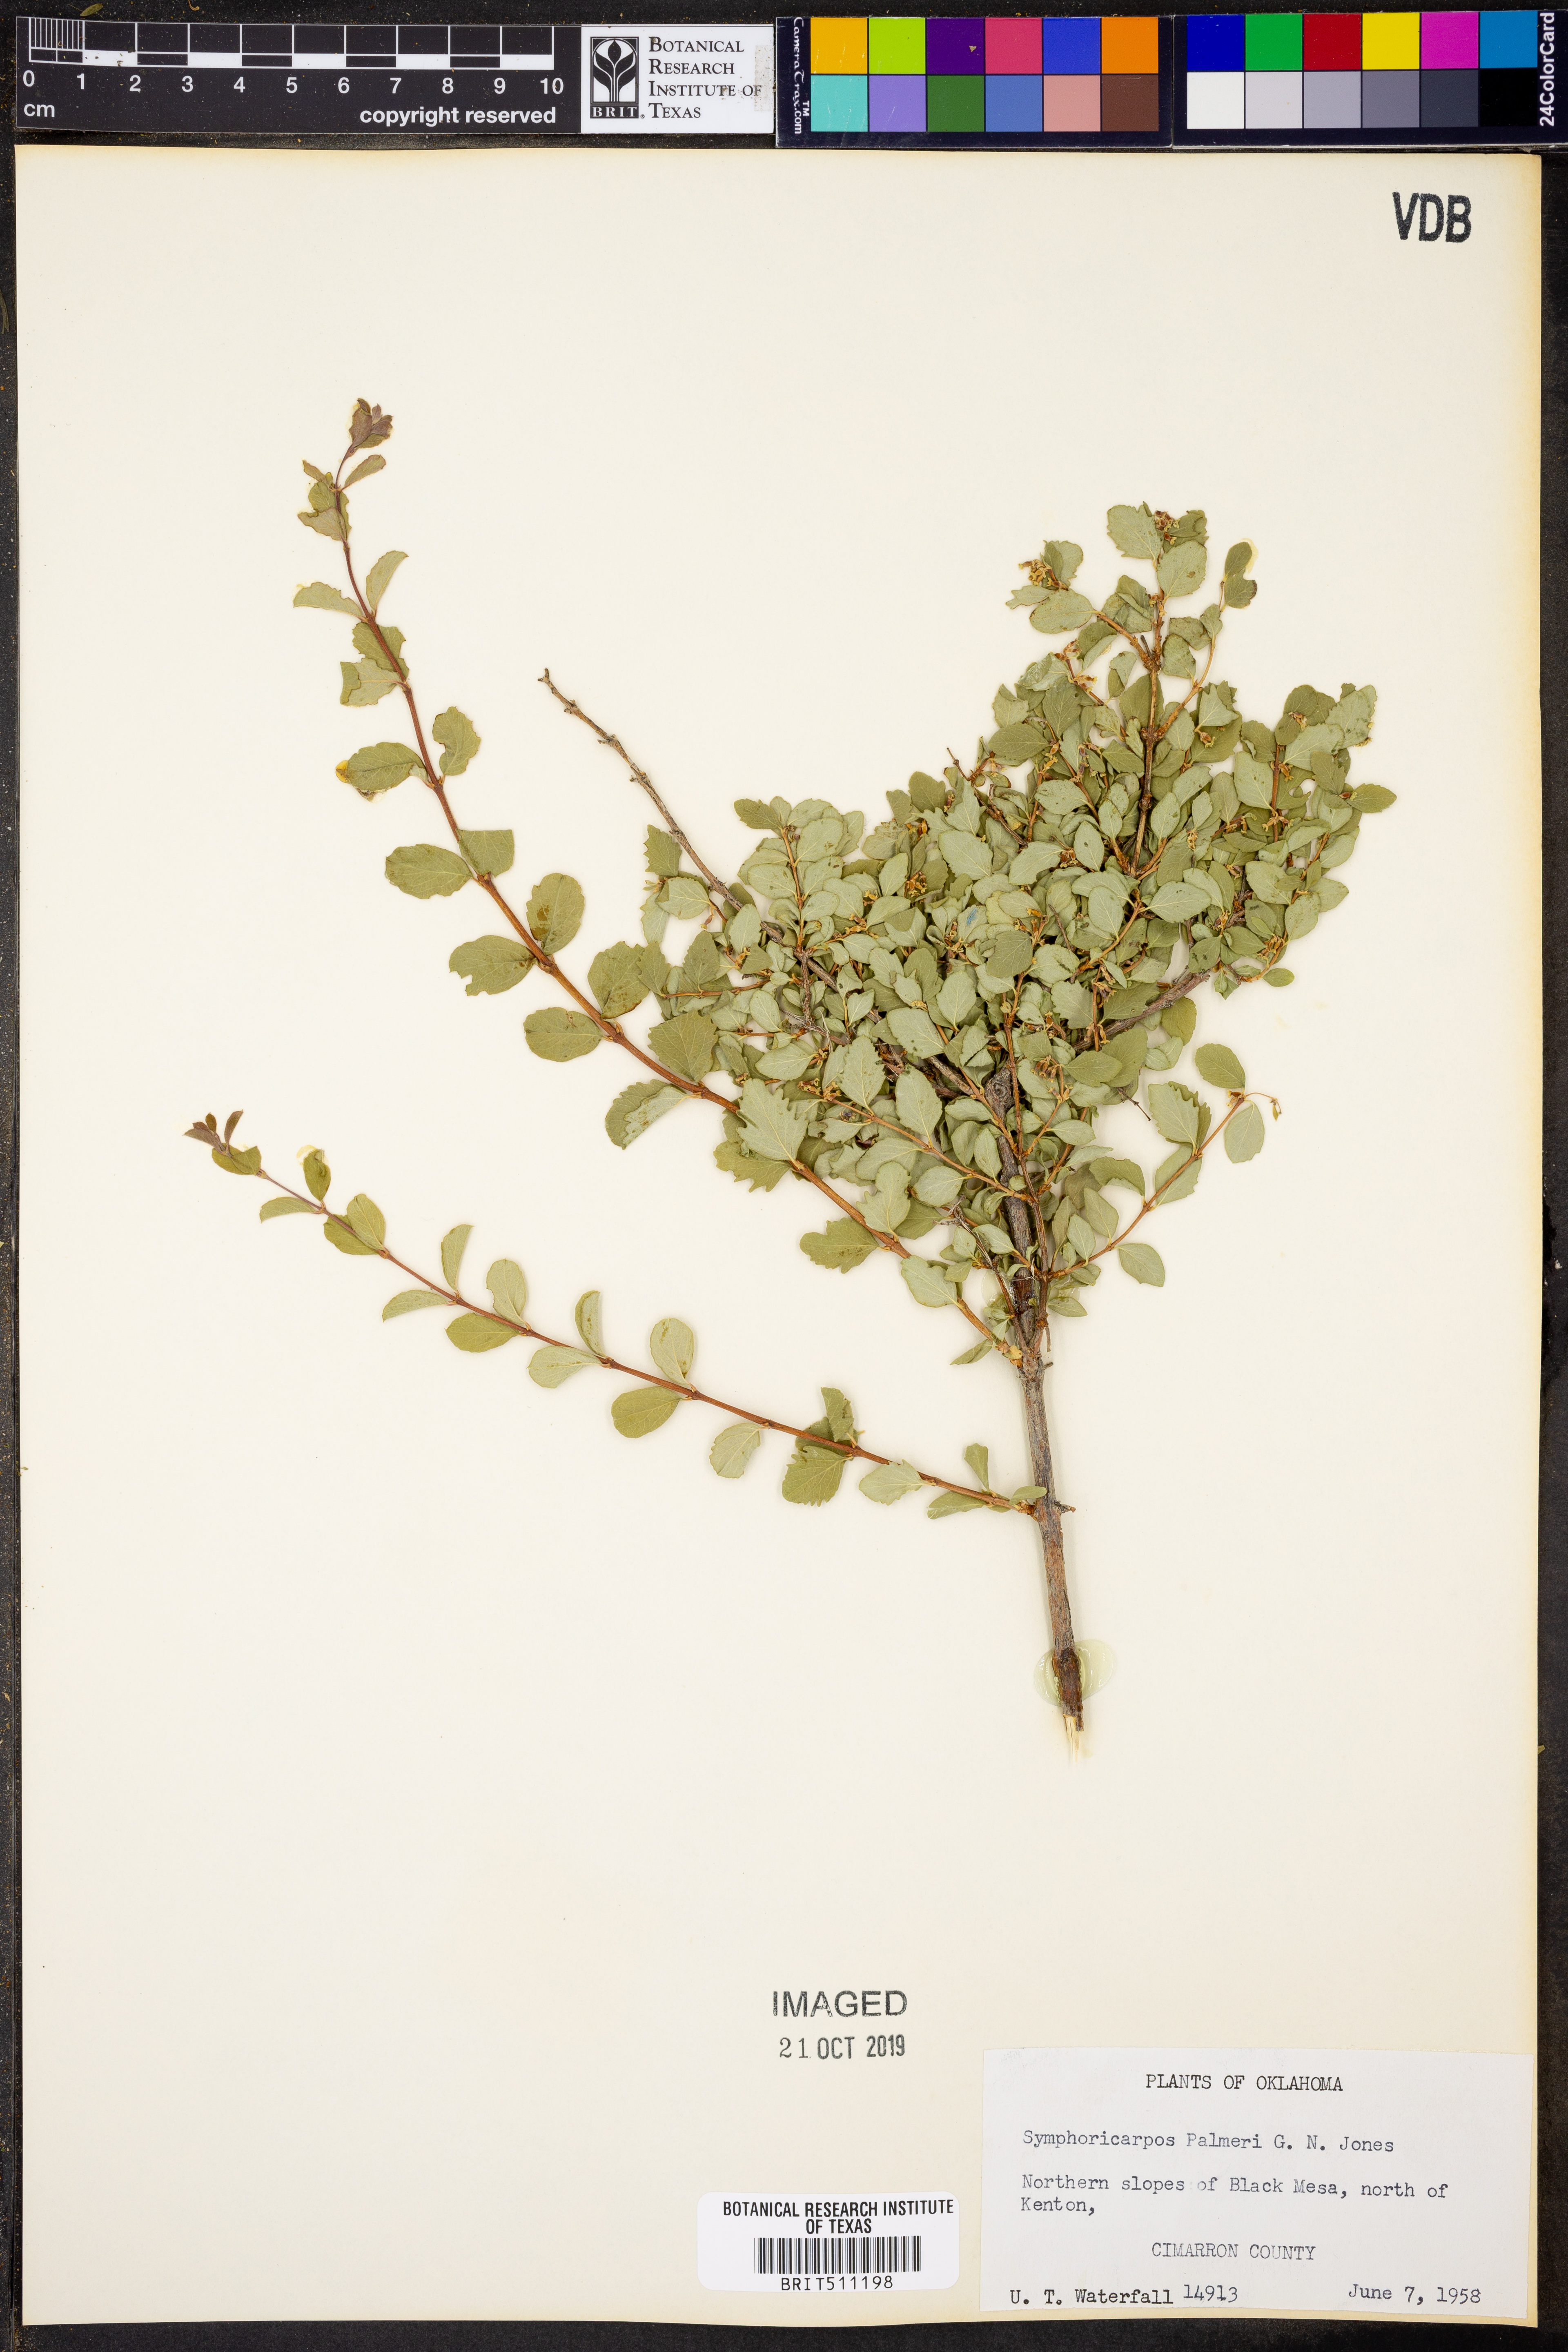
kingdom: Plantae
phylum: Tracheophyta
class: Magnoliopsida
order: Dipsacales
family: Caprifoliaceae
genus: Symphoricarpos
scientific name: Symphoricarpos palmeri
